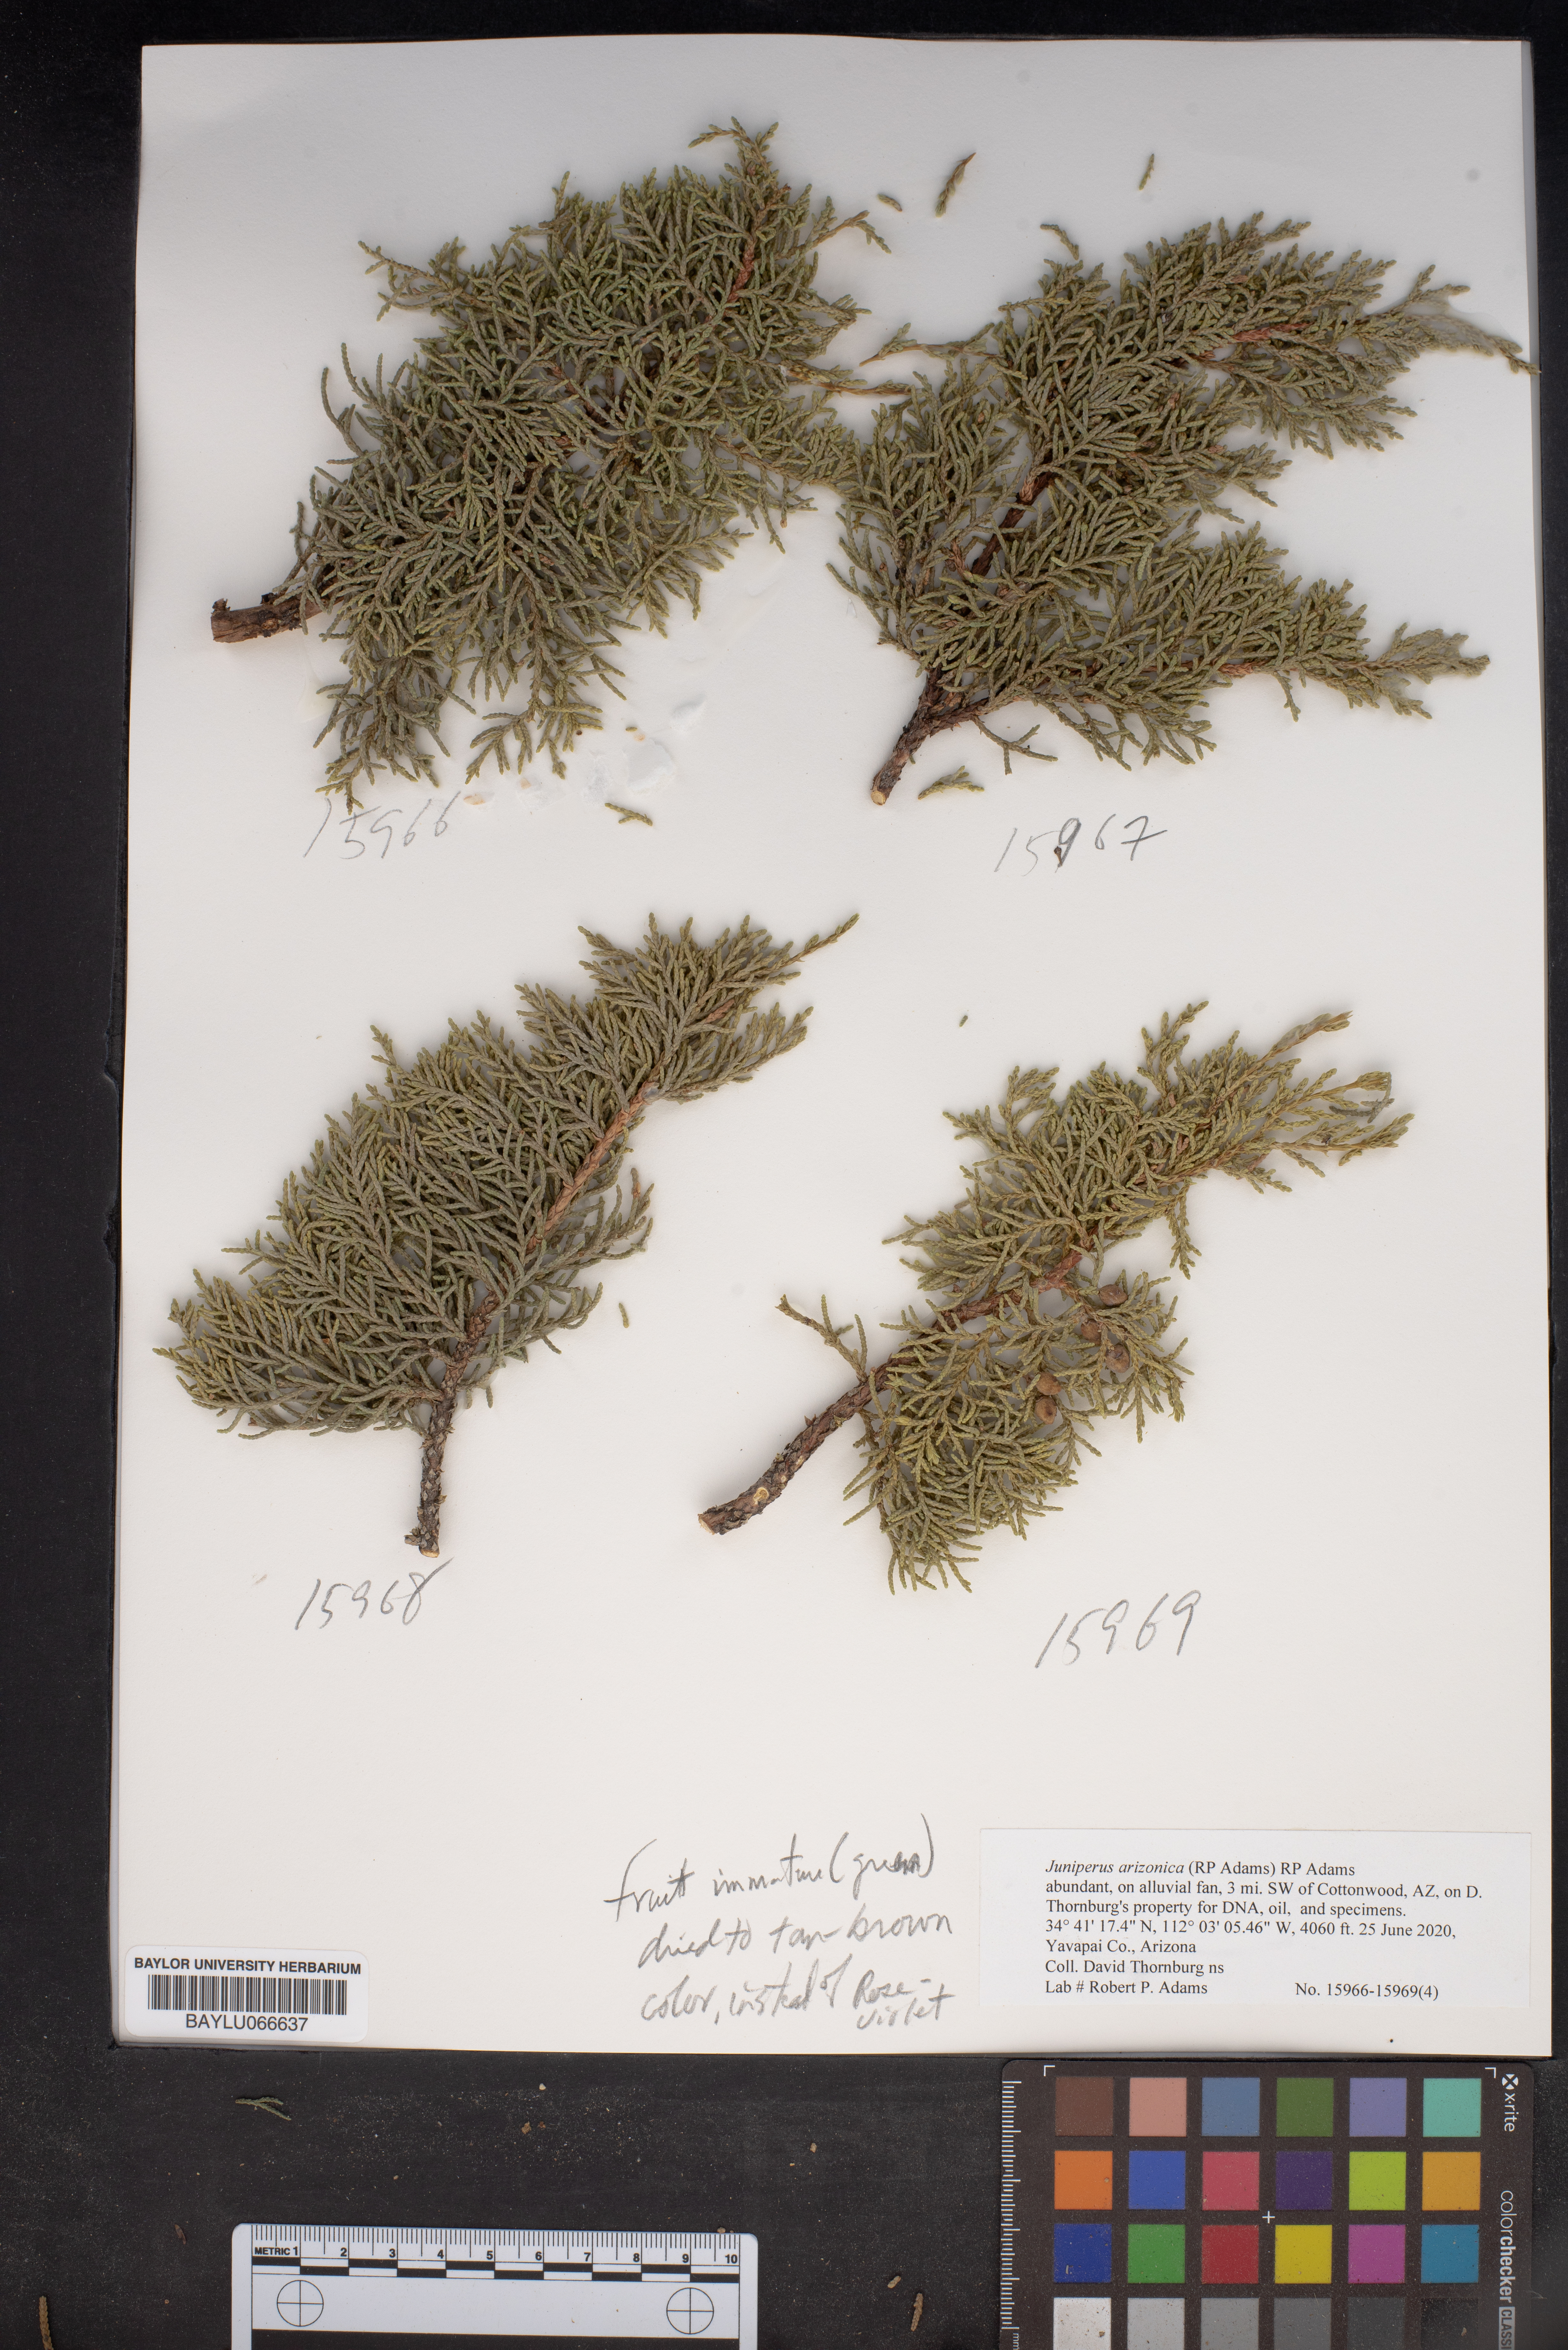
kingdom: Plantae
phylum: Tracheophyta
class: Pinopsida
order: Pinales
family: Cupressaceae
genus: Juniperus
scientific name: Juniperus arizonica
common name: Arizona juniper
